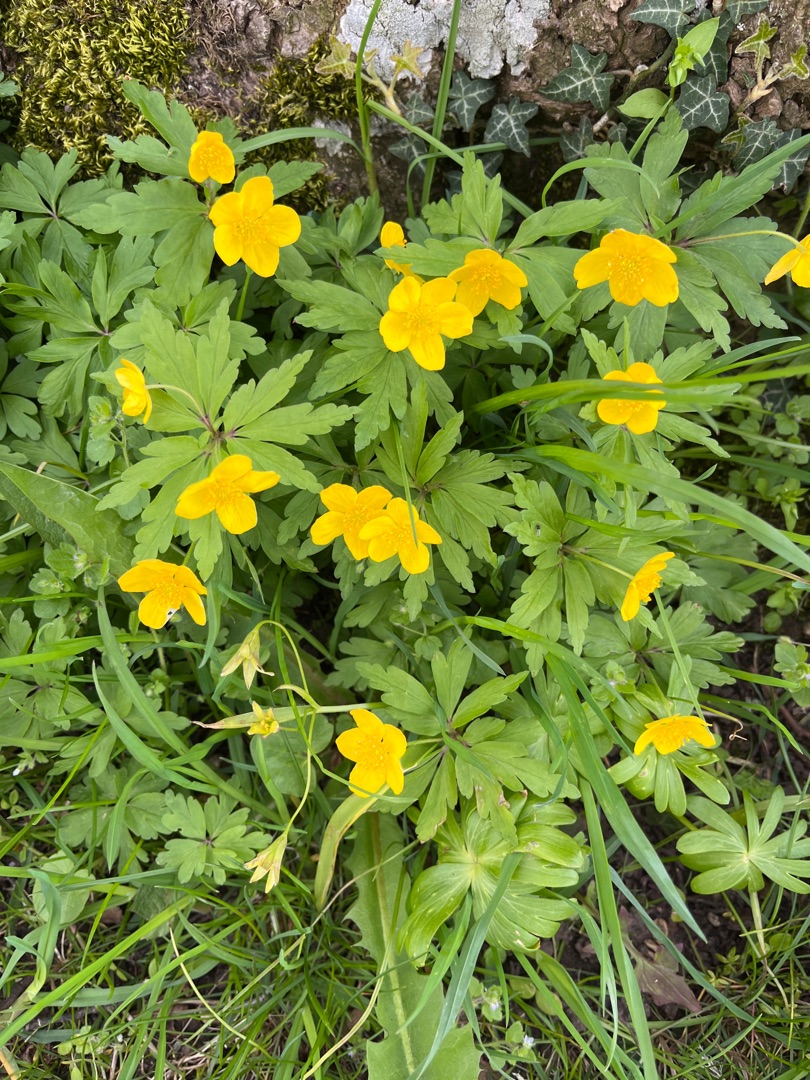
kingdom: Plantae
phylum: Tracheophyta
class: Magnoliopsida
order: Ranunculales
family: Ranunculaceae
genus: Anemone
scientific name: Anemone ranunculoides
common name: Gul anemone
